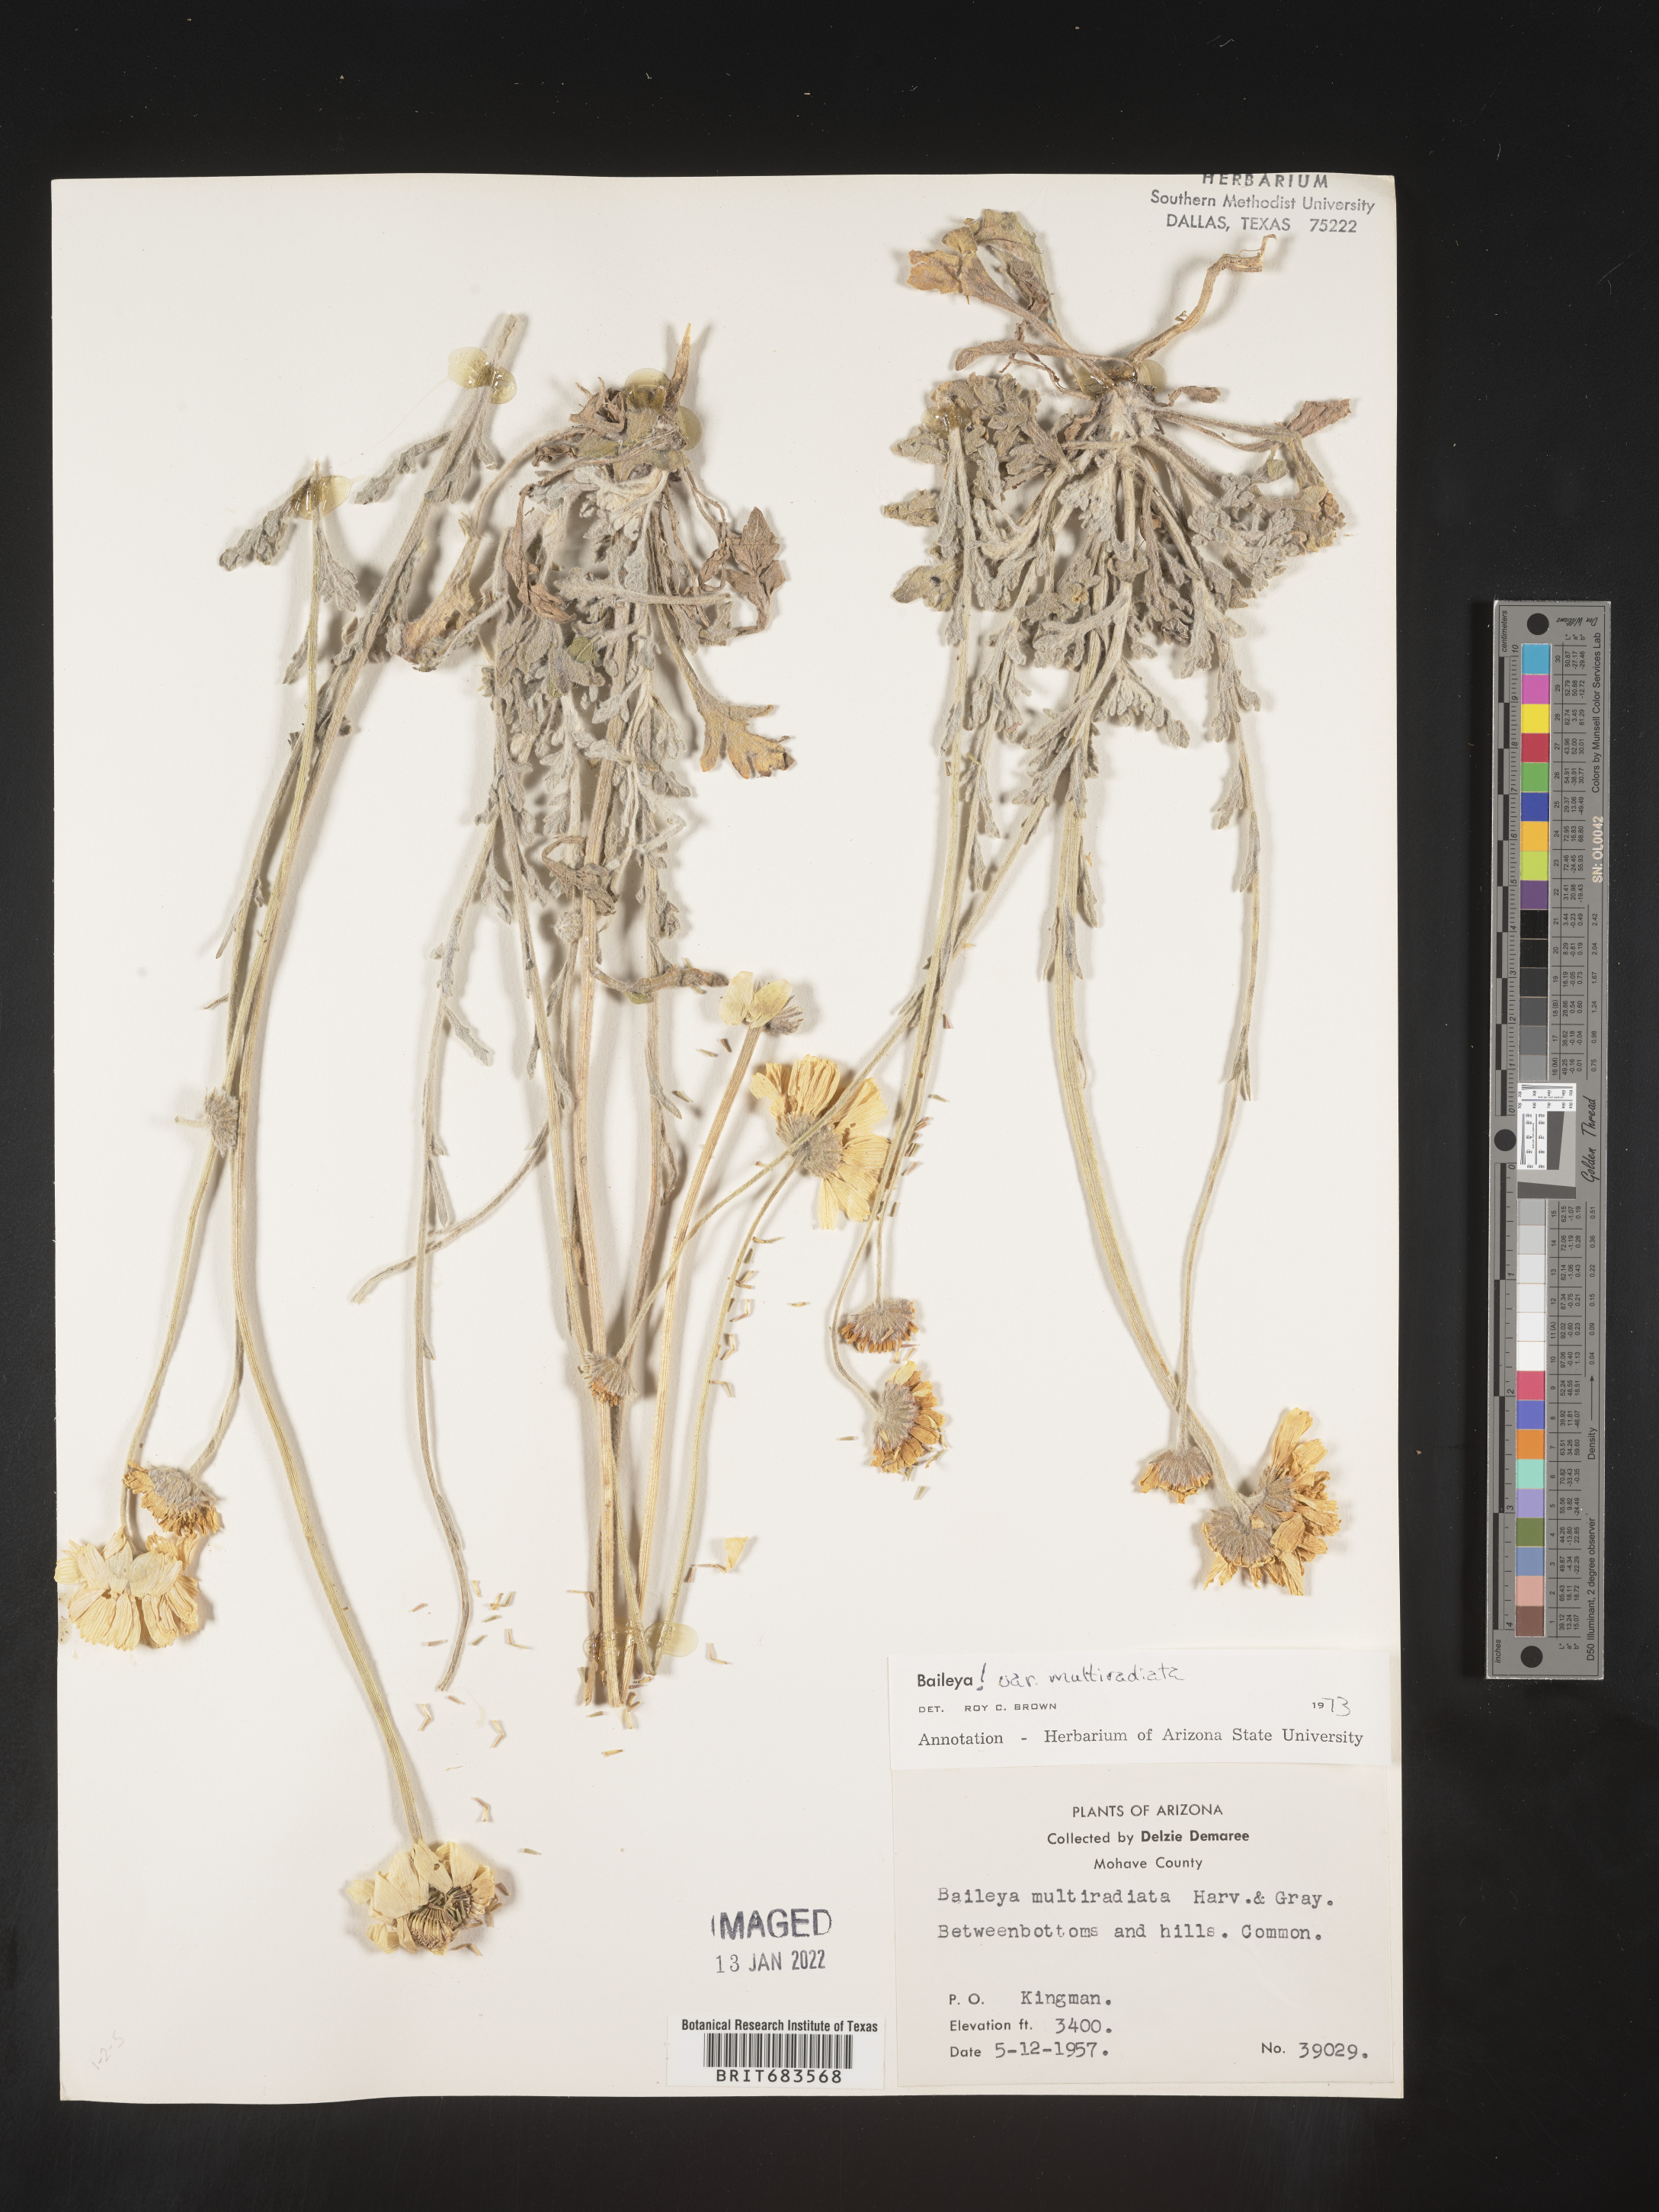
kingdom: Plantae
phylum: Tracheophyta
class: Magnoliopsida
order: Asterales
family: Asteraceae
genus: Baileya
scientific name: Baileya multiradiata
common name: Desert-marigold
